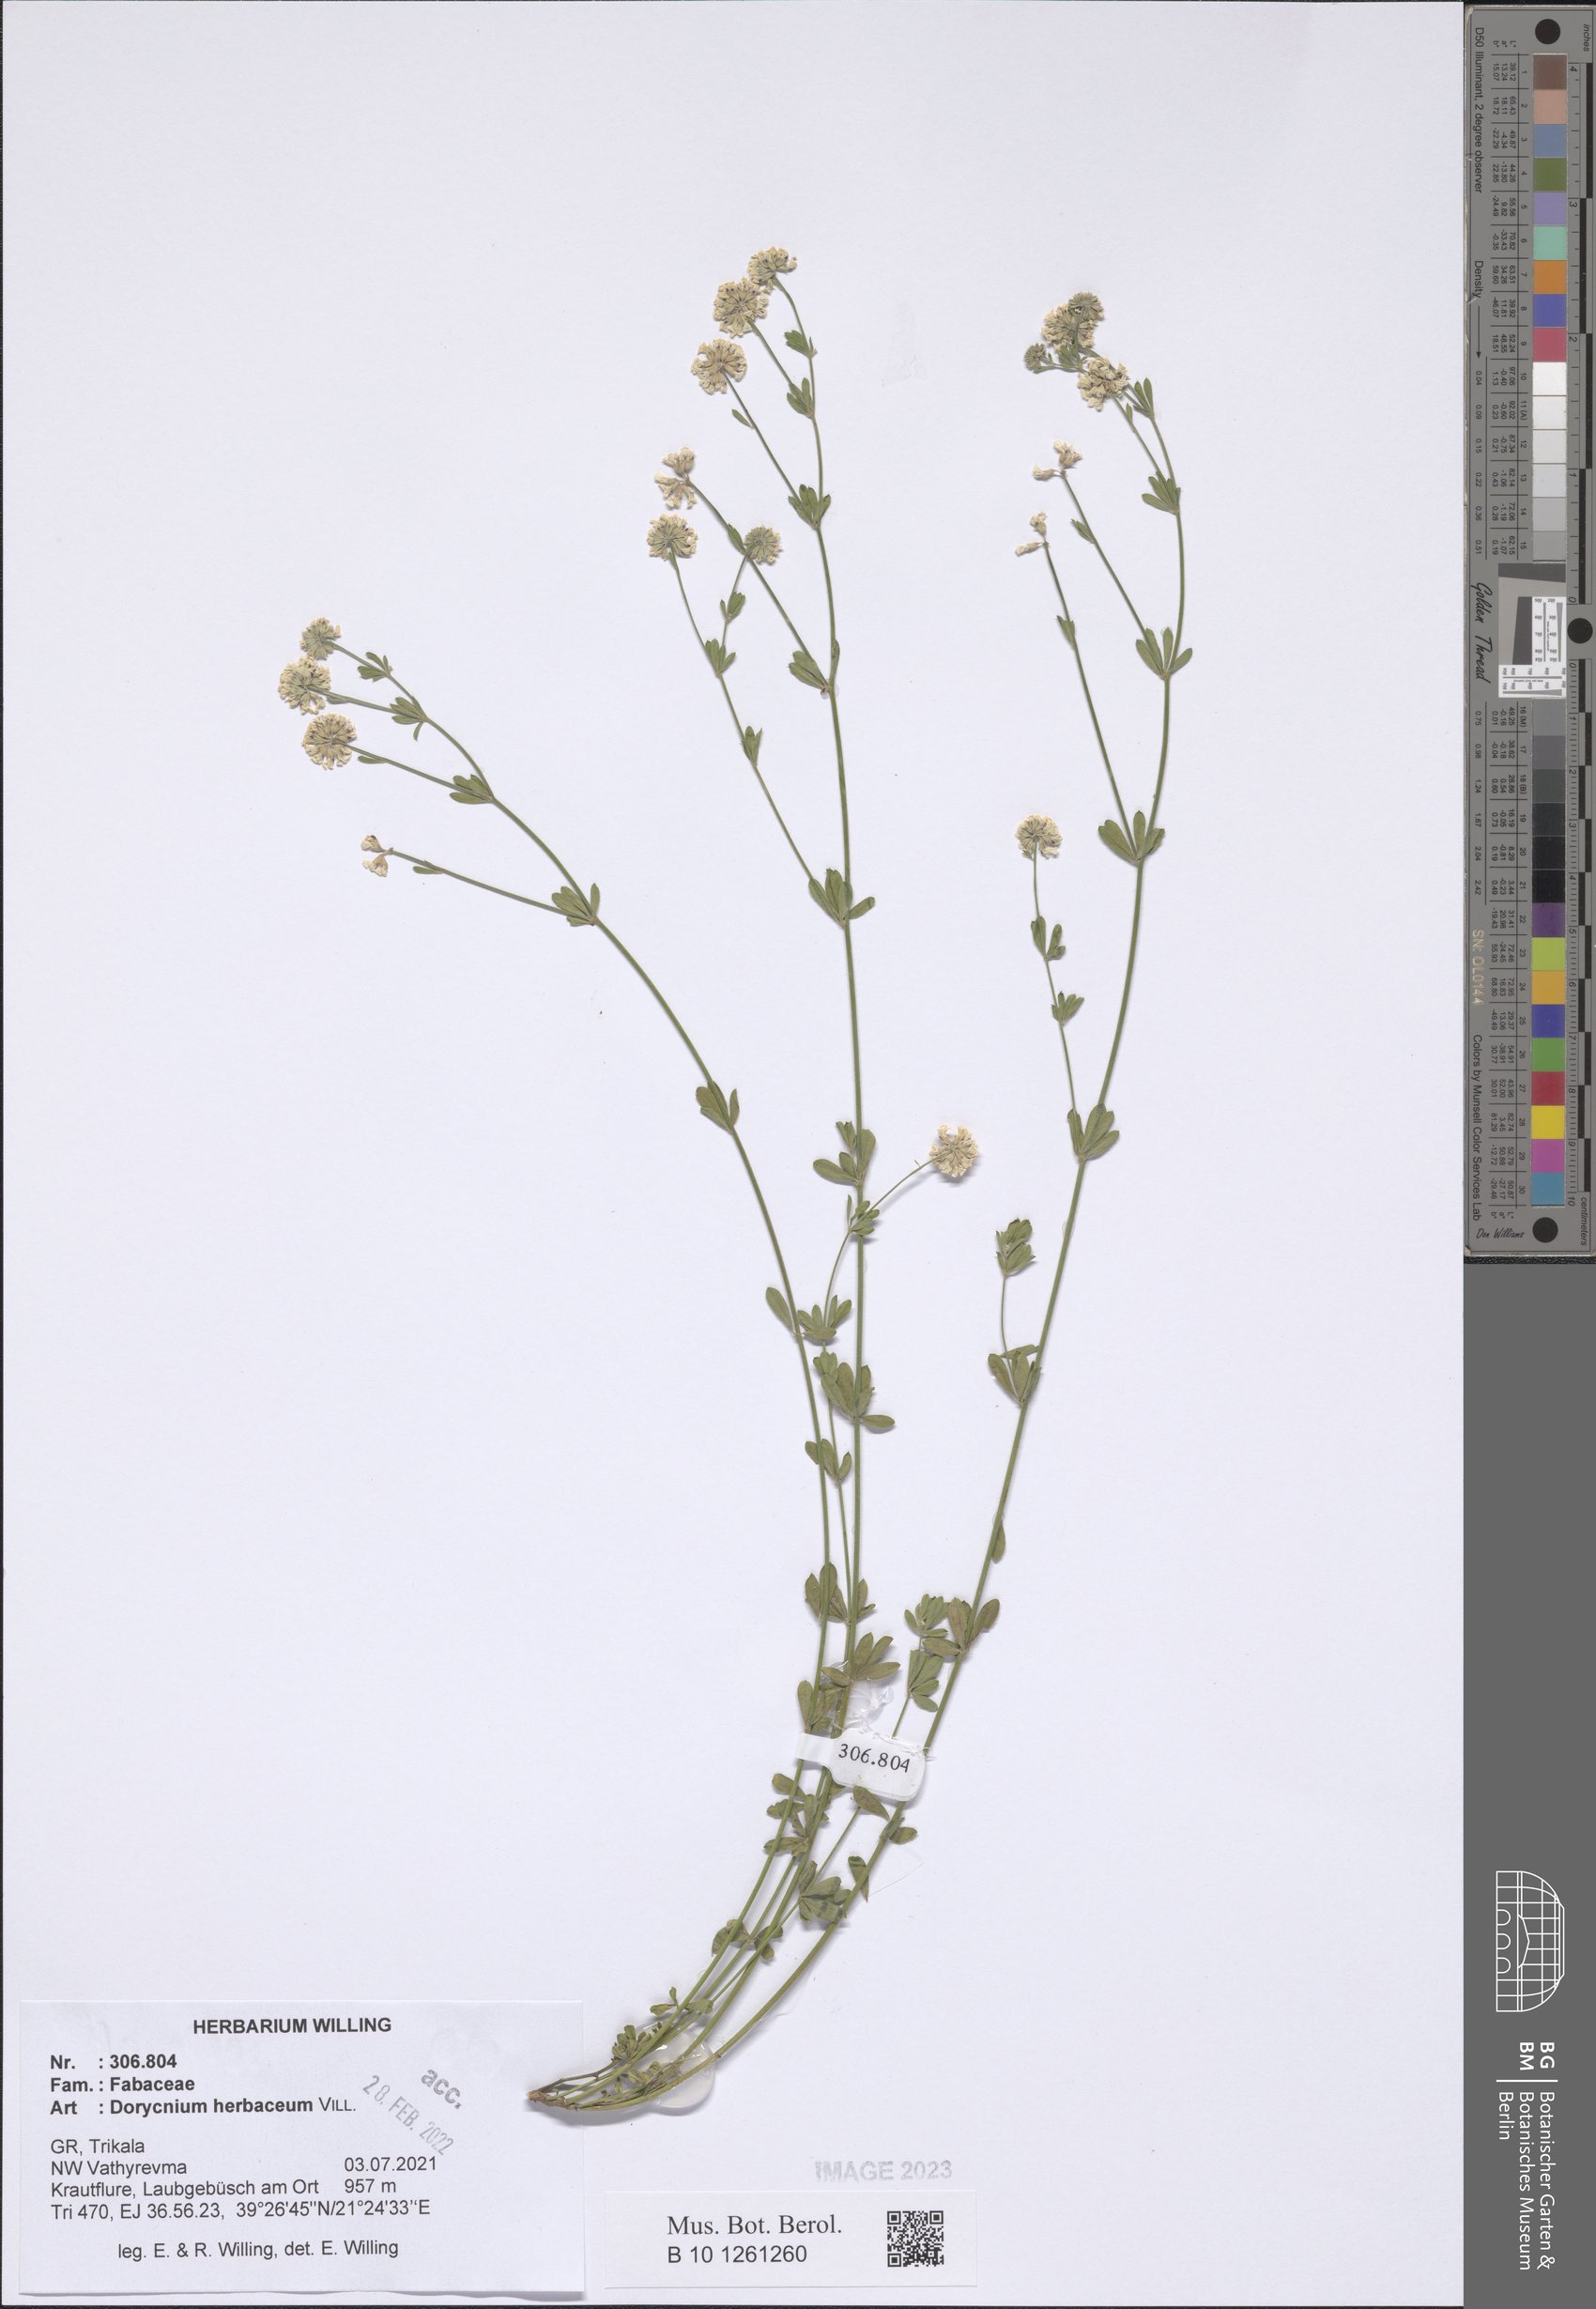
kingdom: Plantae
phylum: Tracheophyta
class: Magnoliopsida
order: Fabales
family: Fabaceae
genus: Lotus
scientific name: Lotus herbaceus
